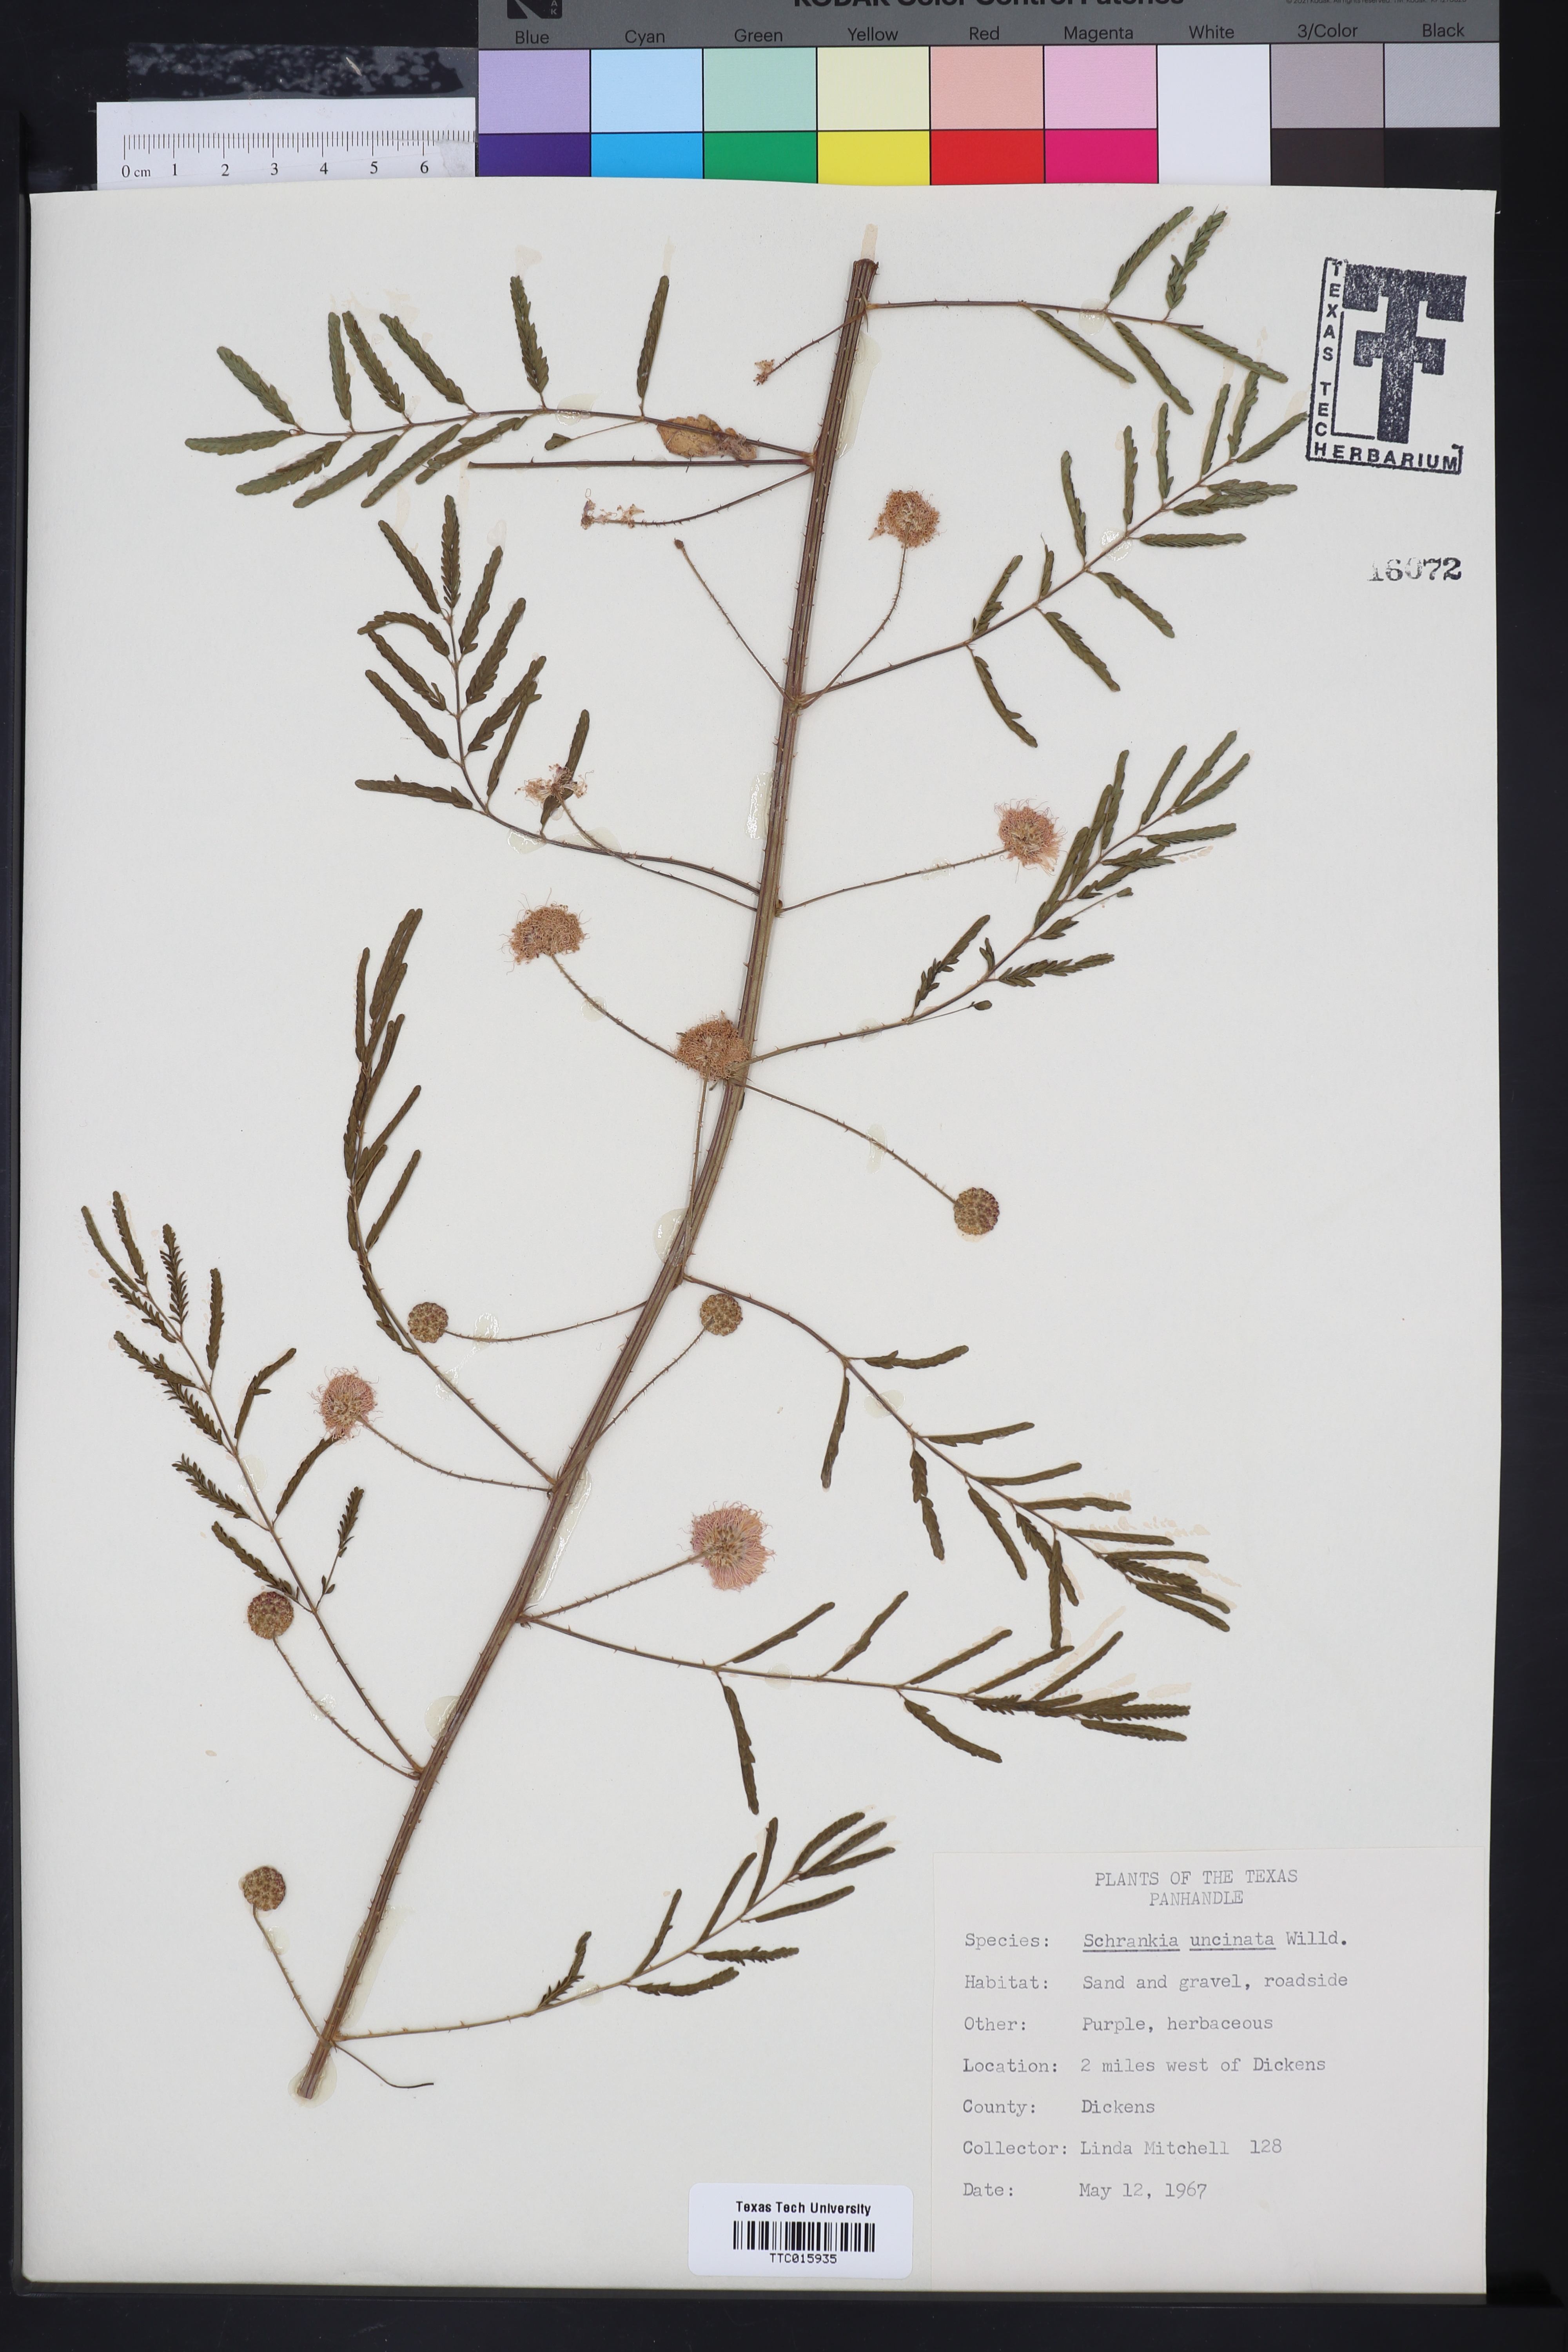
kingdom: Plantae
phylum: Tracheophyta
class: Magnoliopsida
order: Fabales
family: Fabaceae
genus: Mimosa
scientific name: Mimosa quadrivalvis
